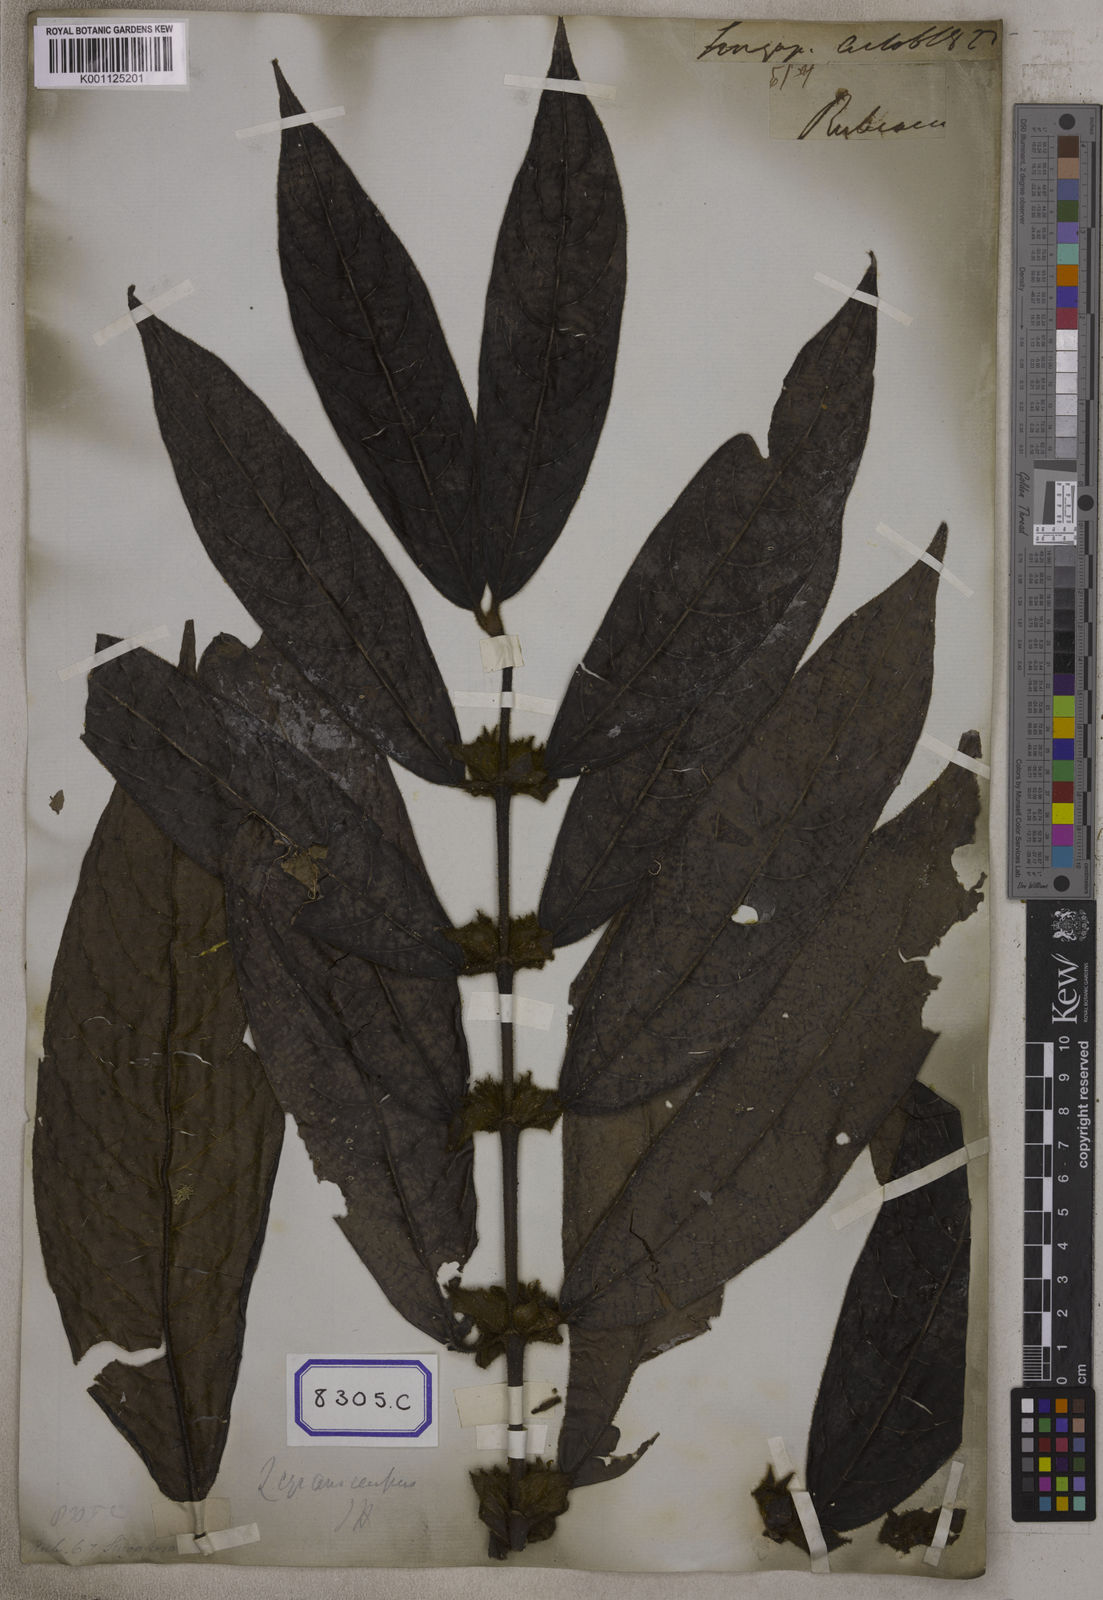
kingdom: Plantae
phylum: Tracheophyta
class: Magnoliopsida
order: Gentianales
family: Rubiaceae
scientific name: Rubiaceae
